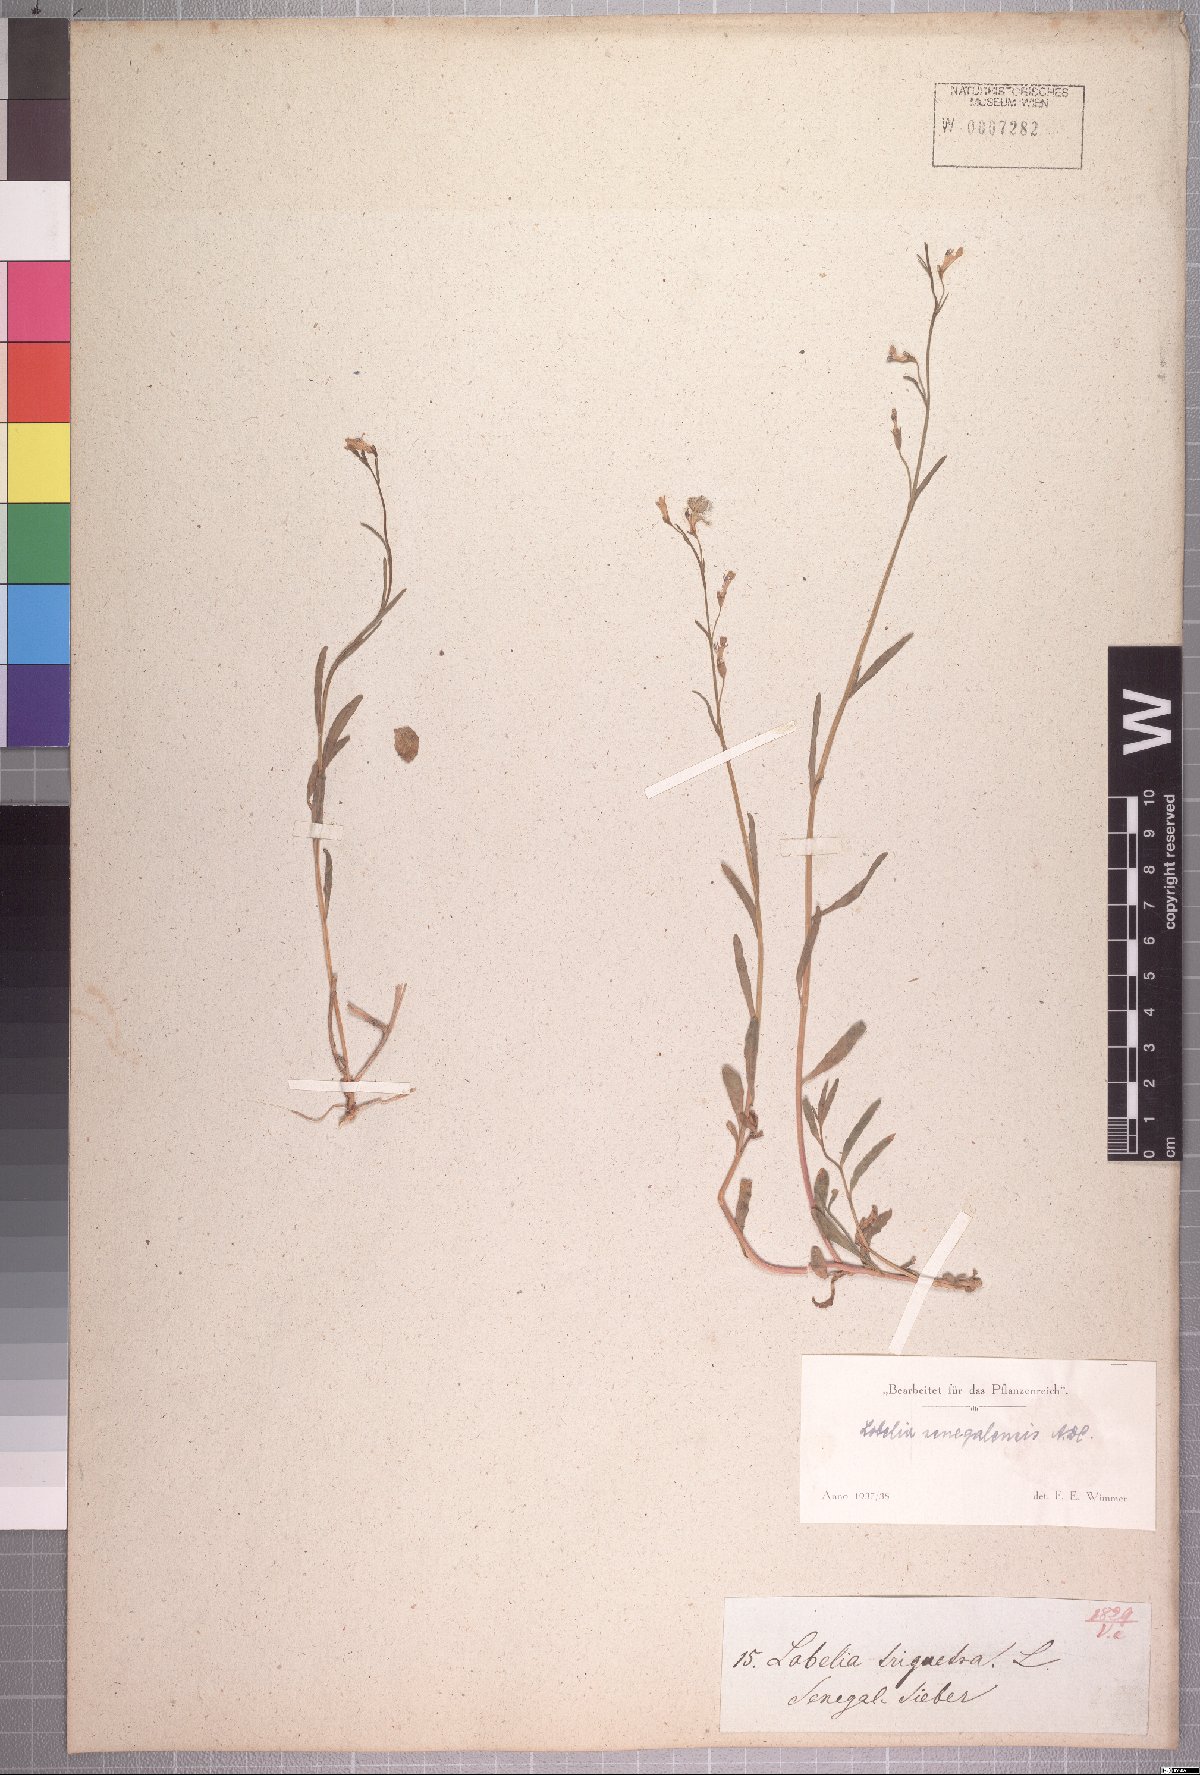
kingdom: Plantae
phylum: Tracheophyta
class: Magnoliopsida
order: Asterales
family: Campanulaceae
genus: Lobelia
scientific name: Lobelia erinus
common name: Edging lobelia
